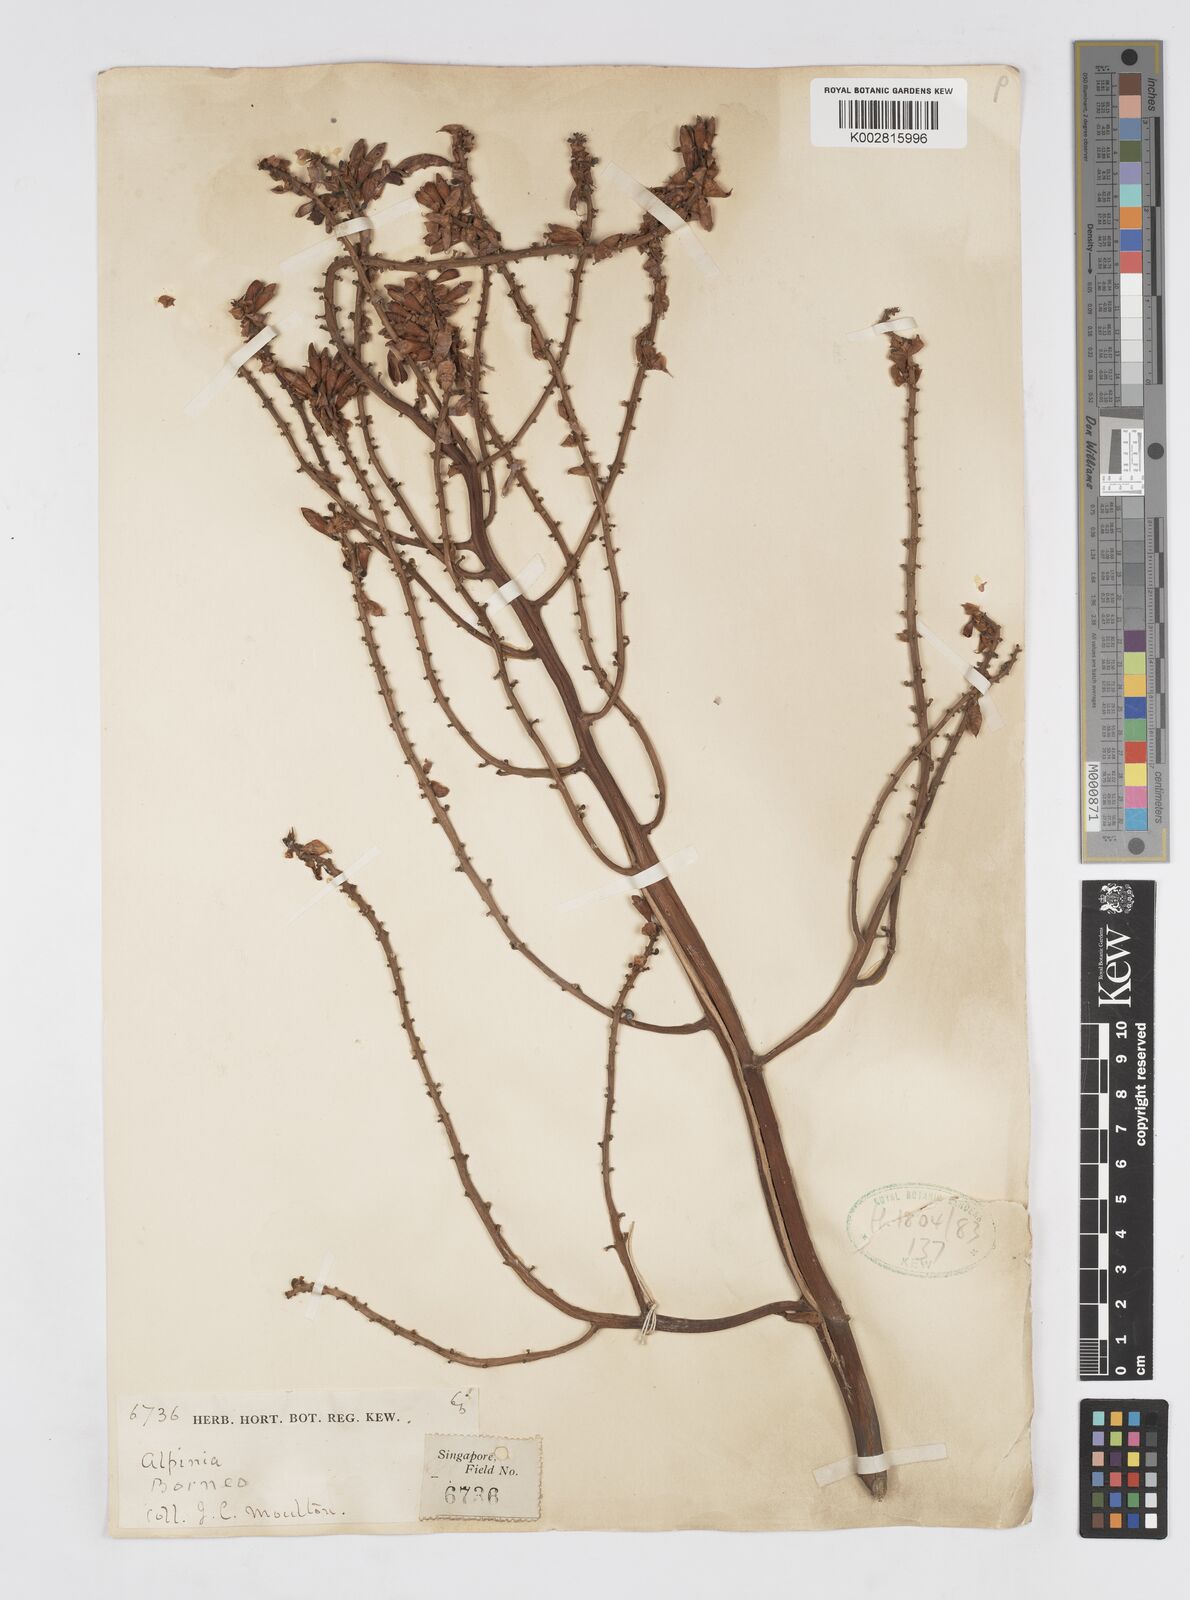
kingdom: Plantae
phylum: Tracheophyta
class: Liliopsida
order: Zingiberales
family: Zingiberaceae
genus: Alpinia
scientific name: Alpinia nieuwenhuizii
